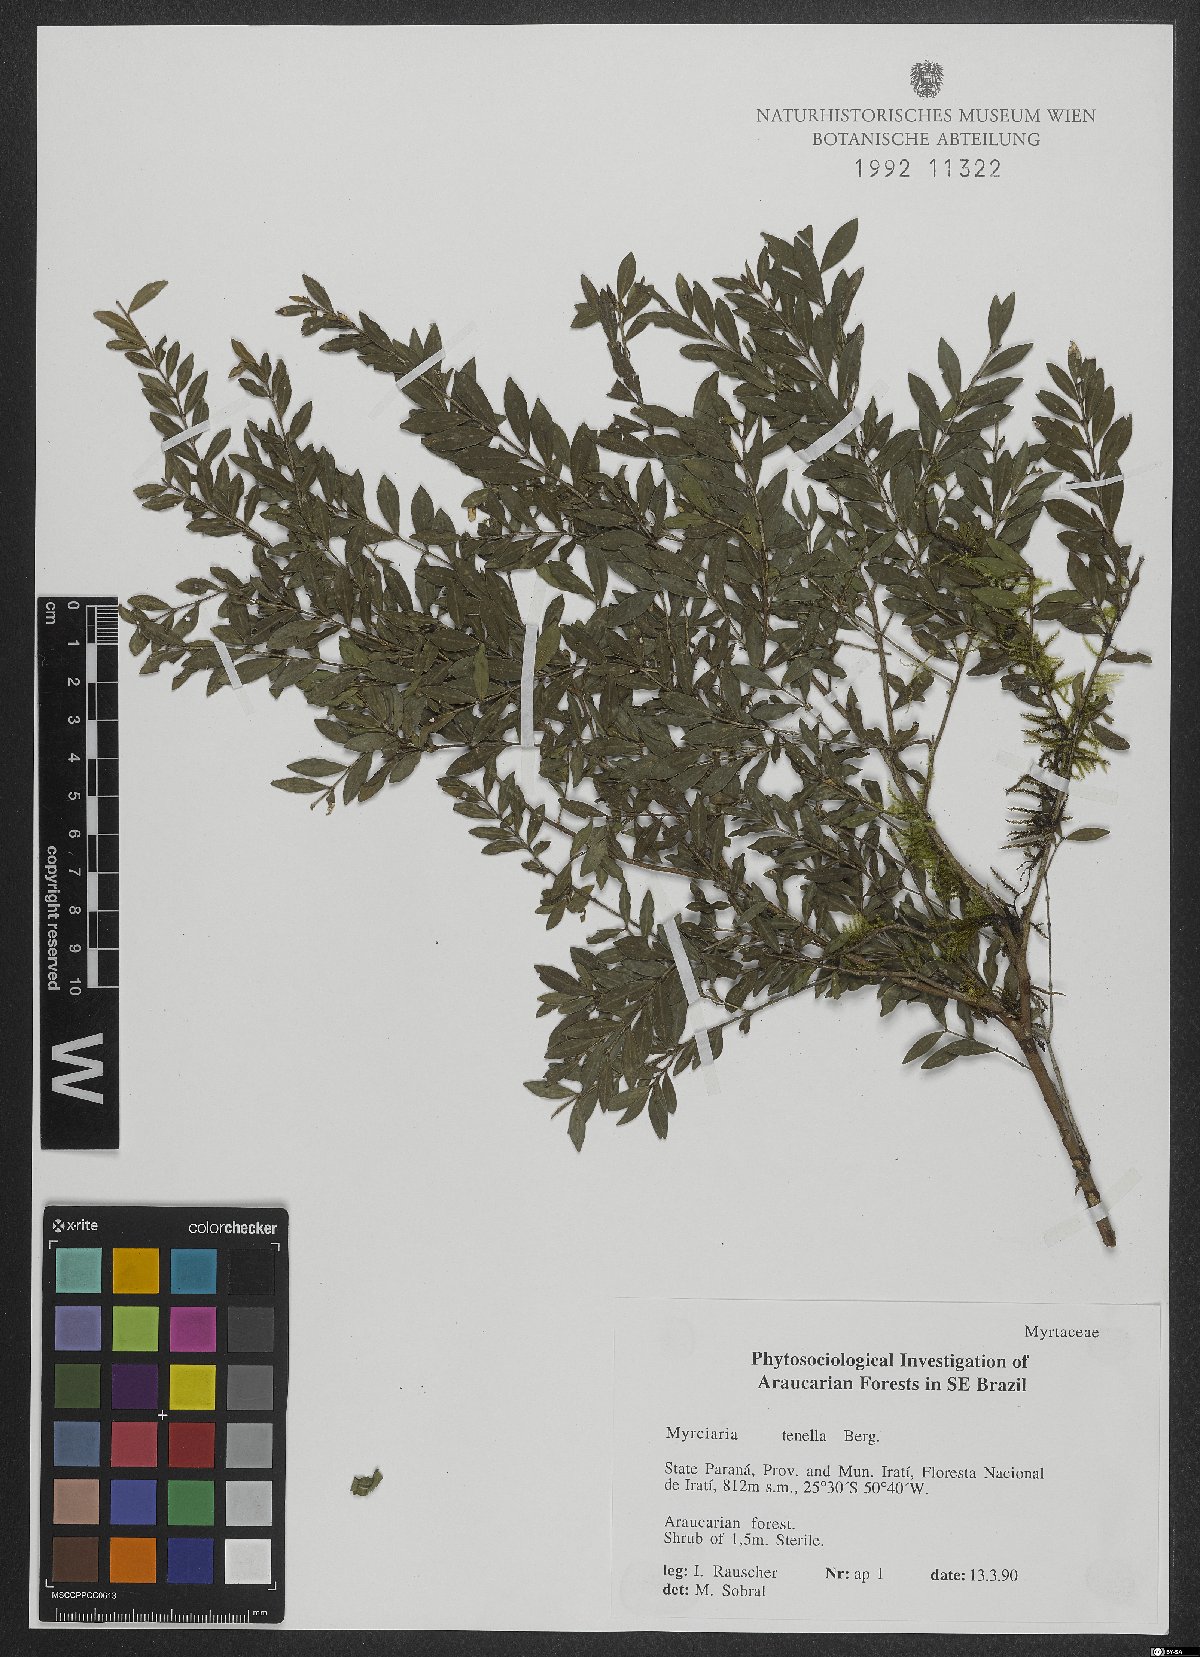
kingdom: Plantae
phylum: Tracheophyta
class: Magnoliopsida
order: Myrtales
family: Myrtaceae
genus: Myrciaria
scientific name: Myrciaria tenella
